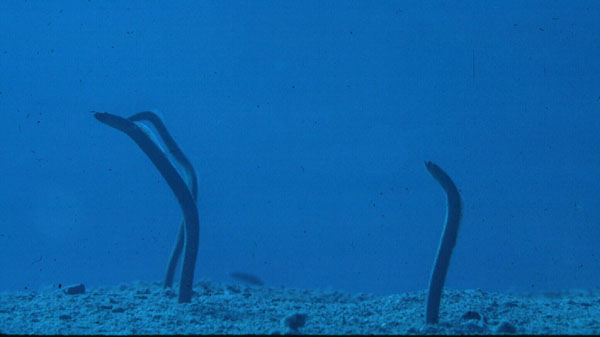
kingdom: Animalia
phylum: Chordata
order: Anguilliformes
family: Congridae
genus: Gorgasia
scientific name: Gorgasia sillneri
